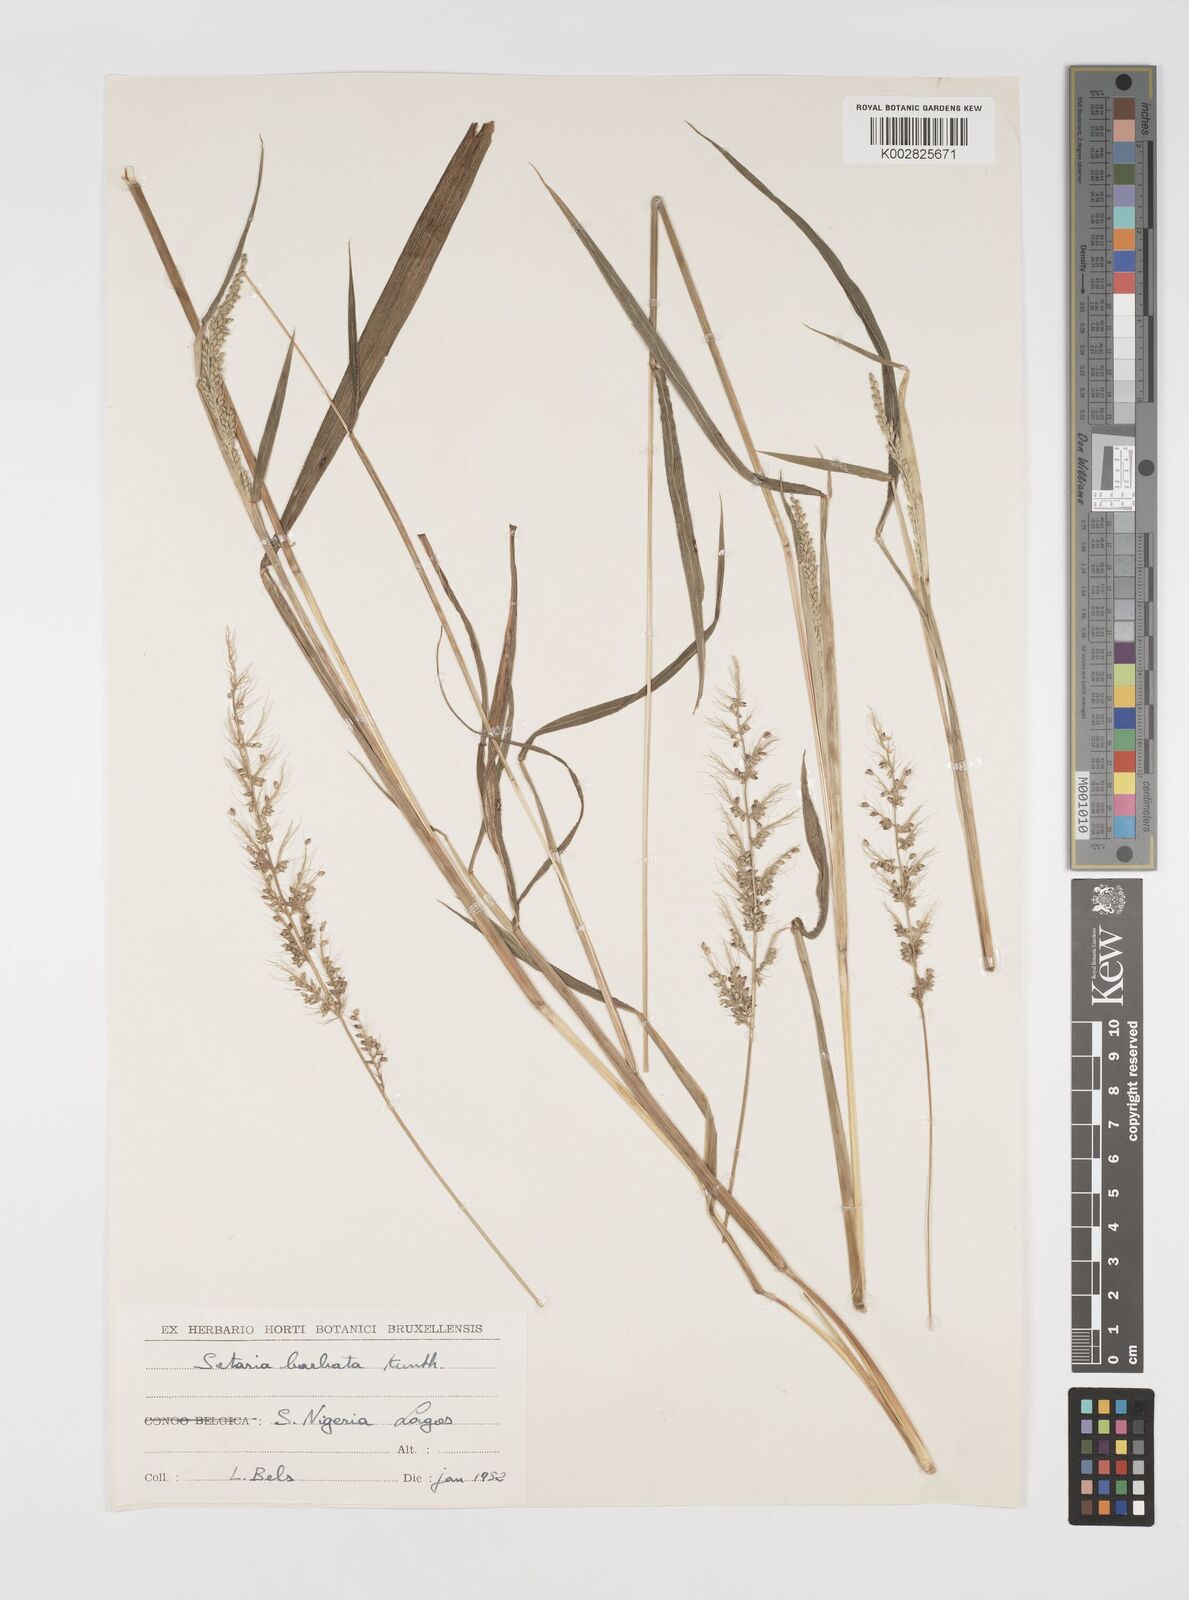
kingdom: Plantae
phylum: Tracheophyta
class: Liliopsida
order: Poales
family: Poaceae
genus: Setaria
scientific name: Setaria barbata
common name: East indian bristlegrass
